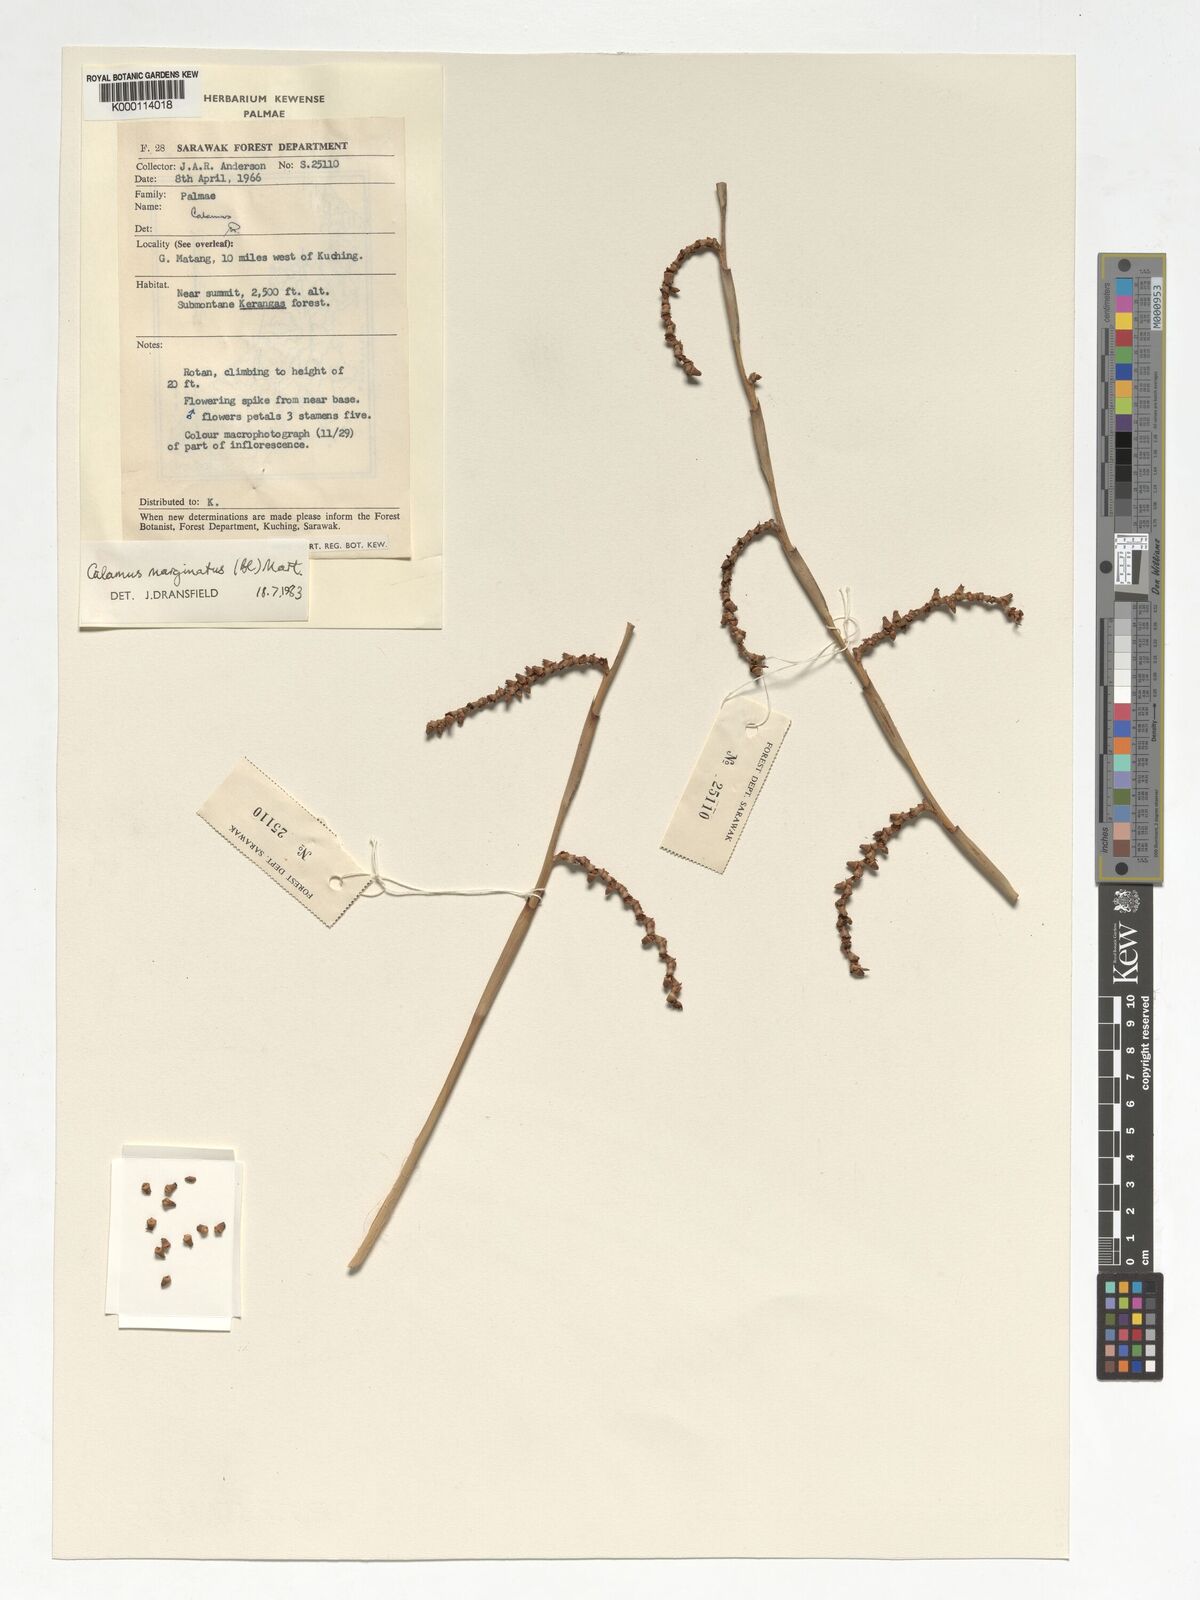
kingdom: Plantae
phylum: Tracheophyta
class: Liliopsida
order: Arecales
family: Arecaceae
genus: Calamus
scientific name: Calamus
